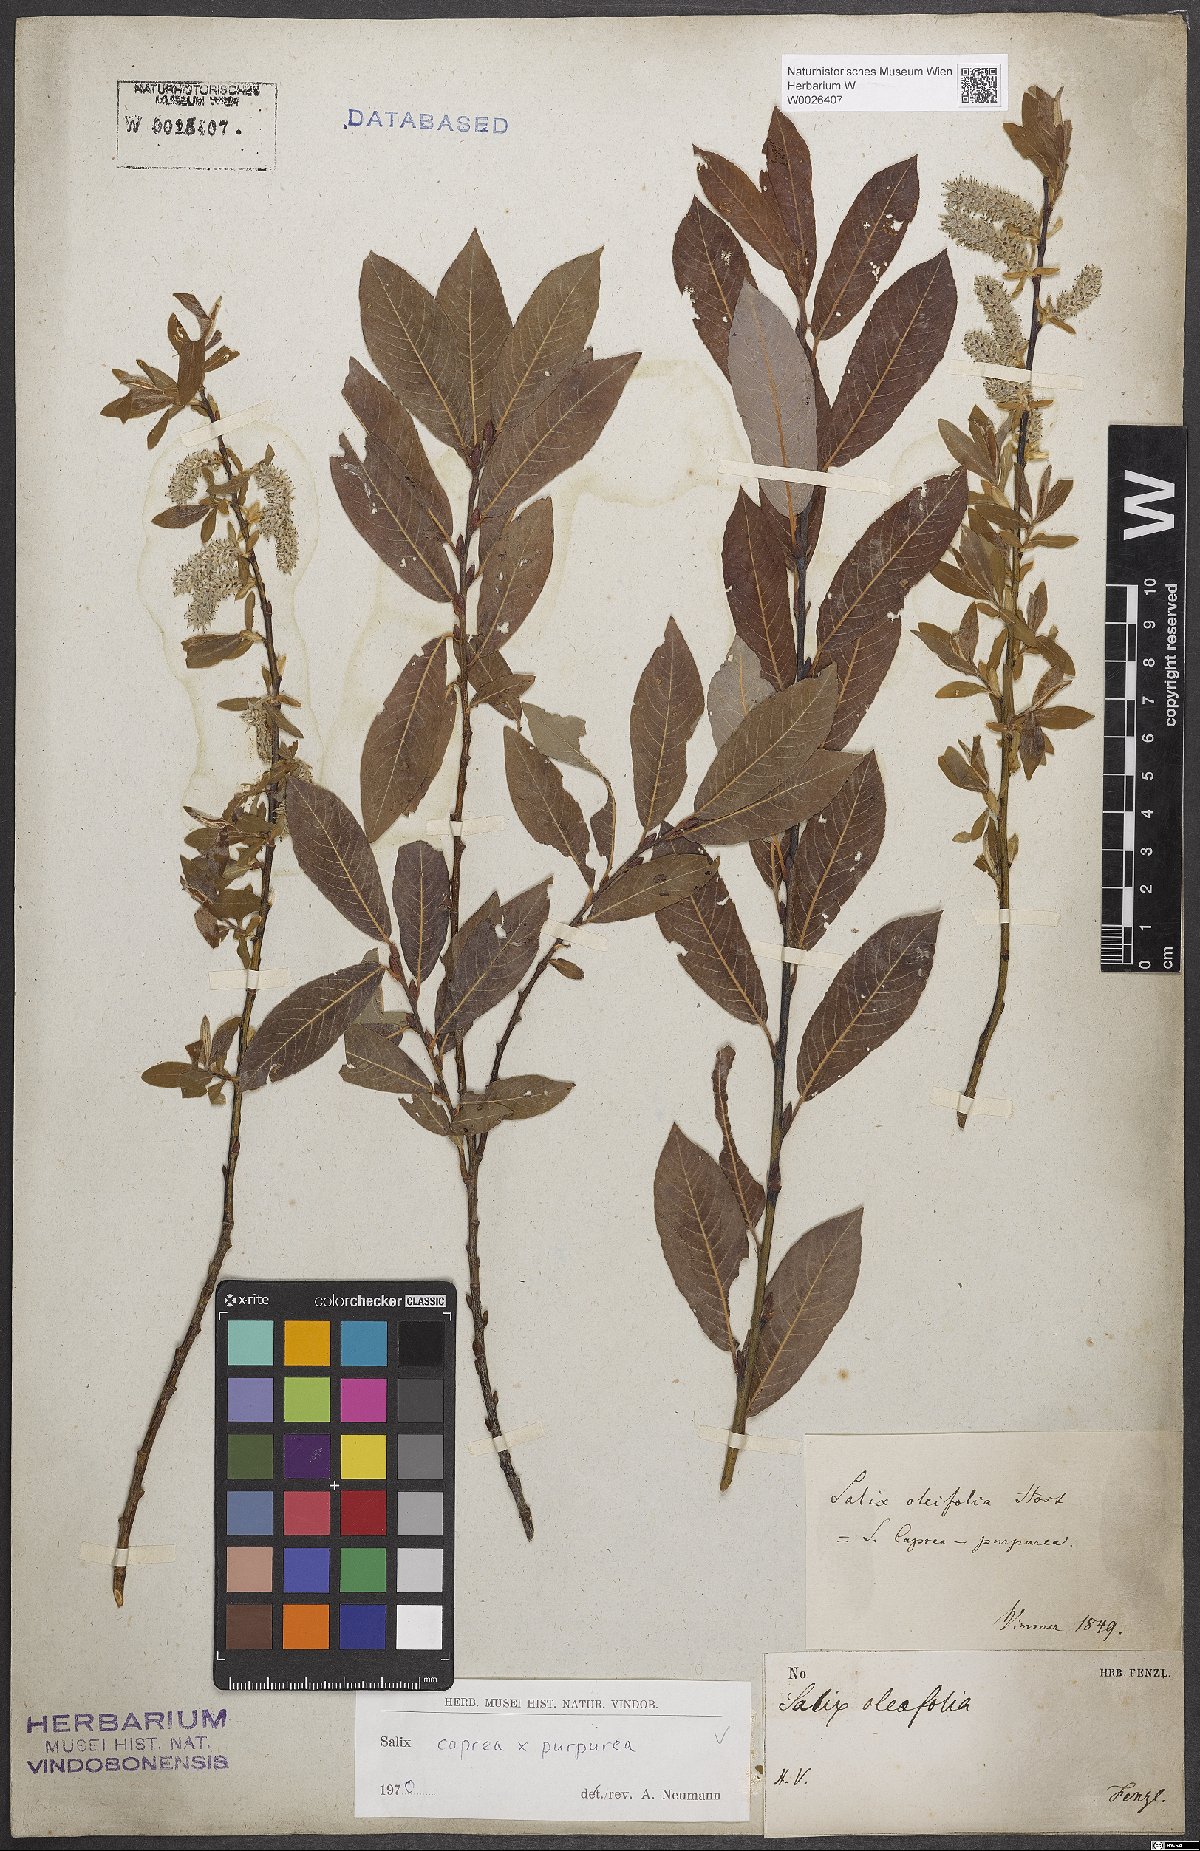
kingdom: Plantae
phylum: Tracheophyta
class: Magnoliopsida
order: Malpighiales
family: Salicaceae
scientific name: Salicaceae
